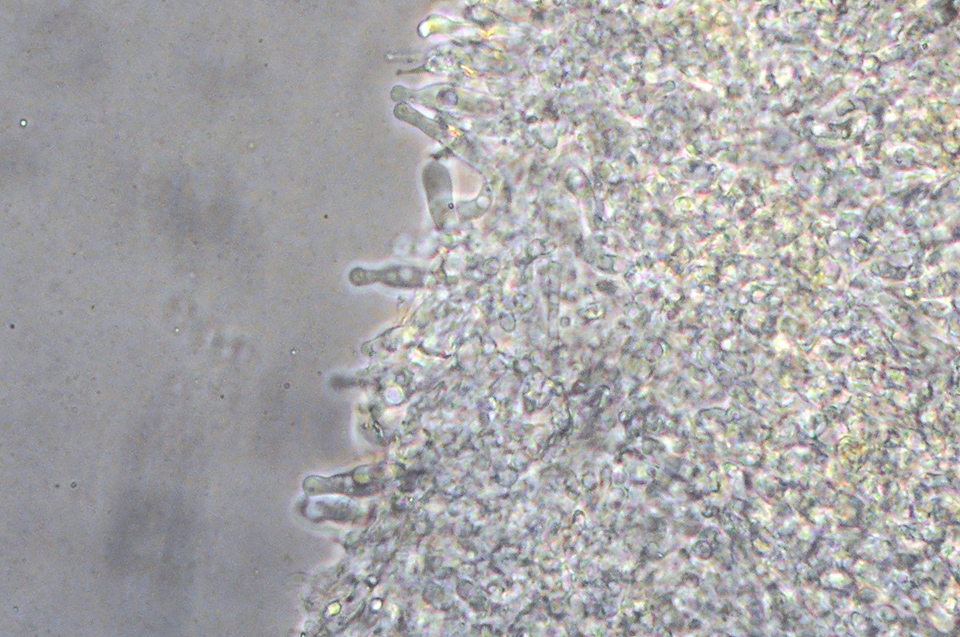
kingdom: Fungi
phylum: Basidiomycota
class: Agaricomycetes
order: Agaricales
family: Mycenaceae
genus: Hemimycena
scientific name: Hemimycena lactea
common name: mælkehvid huesvamp
